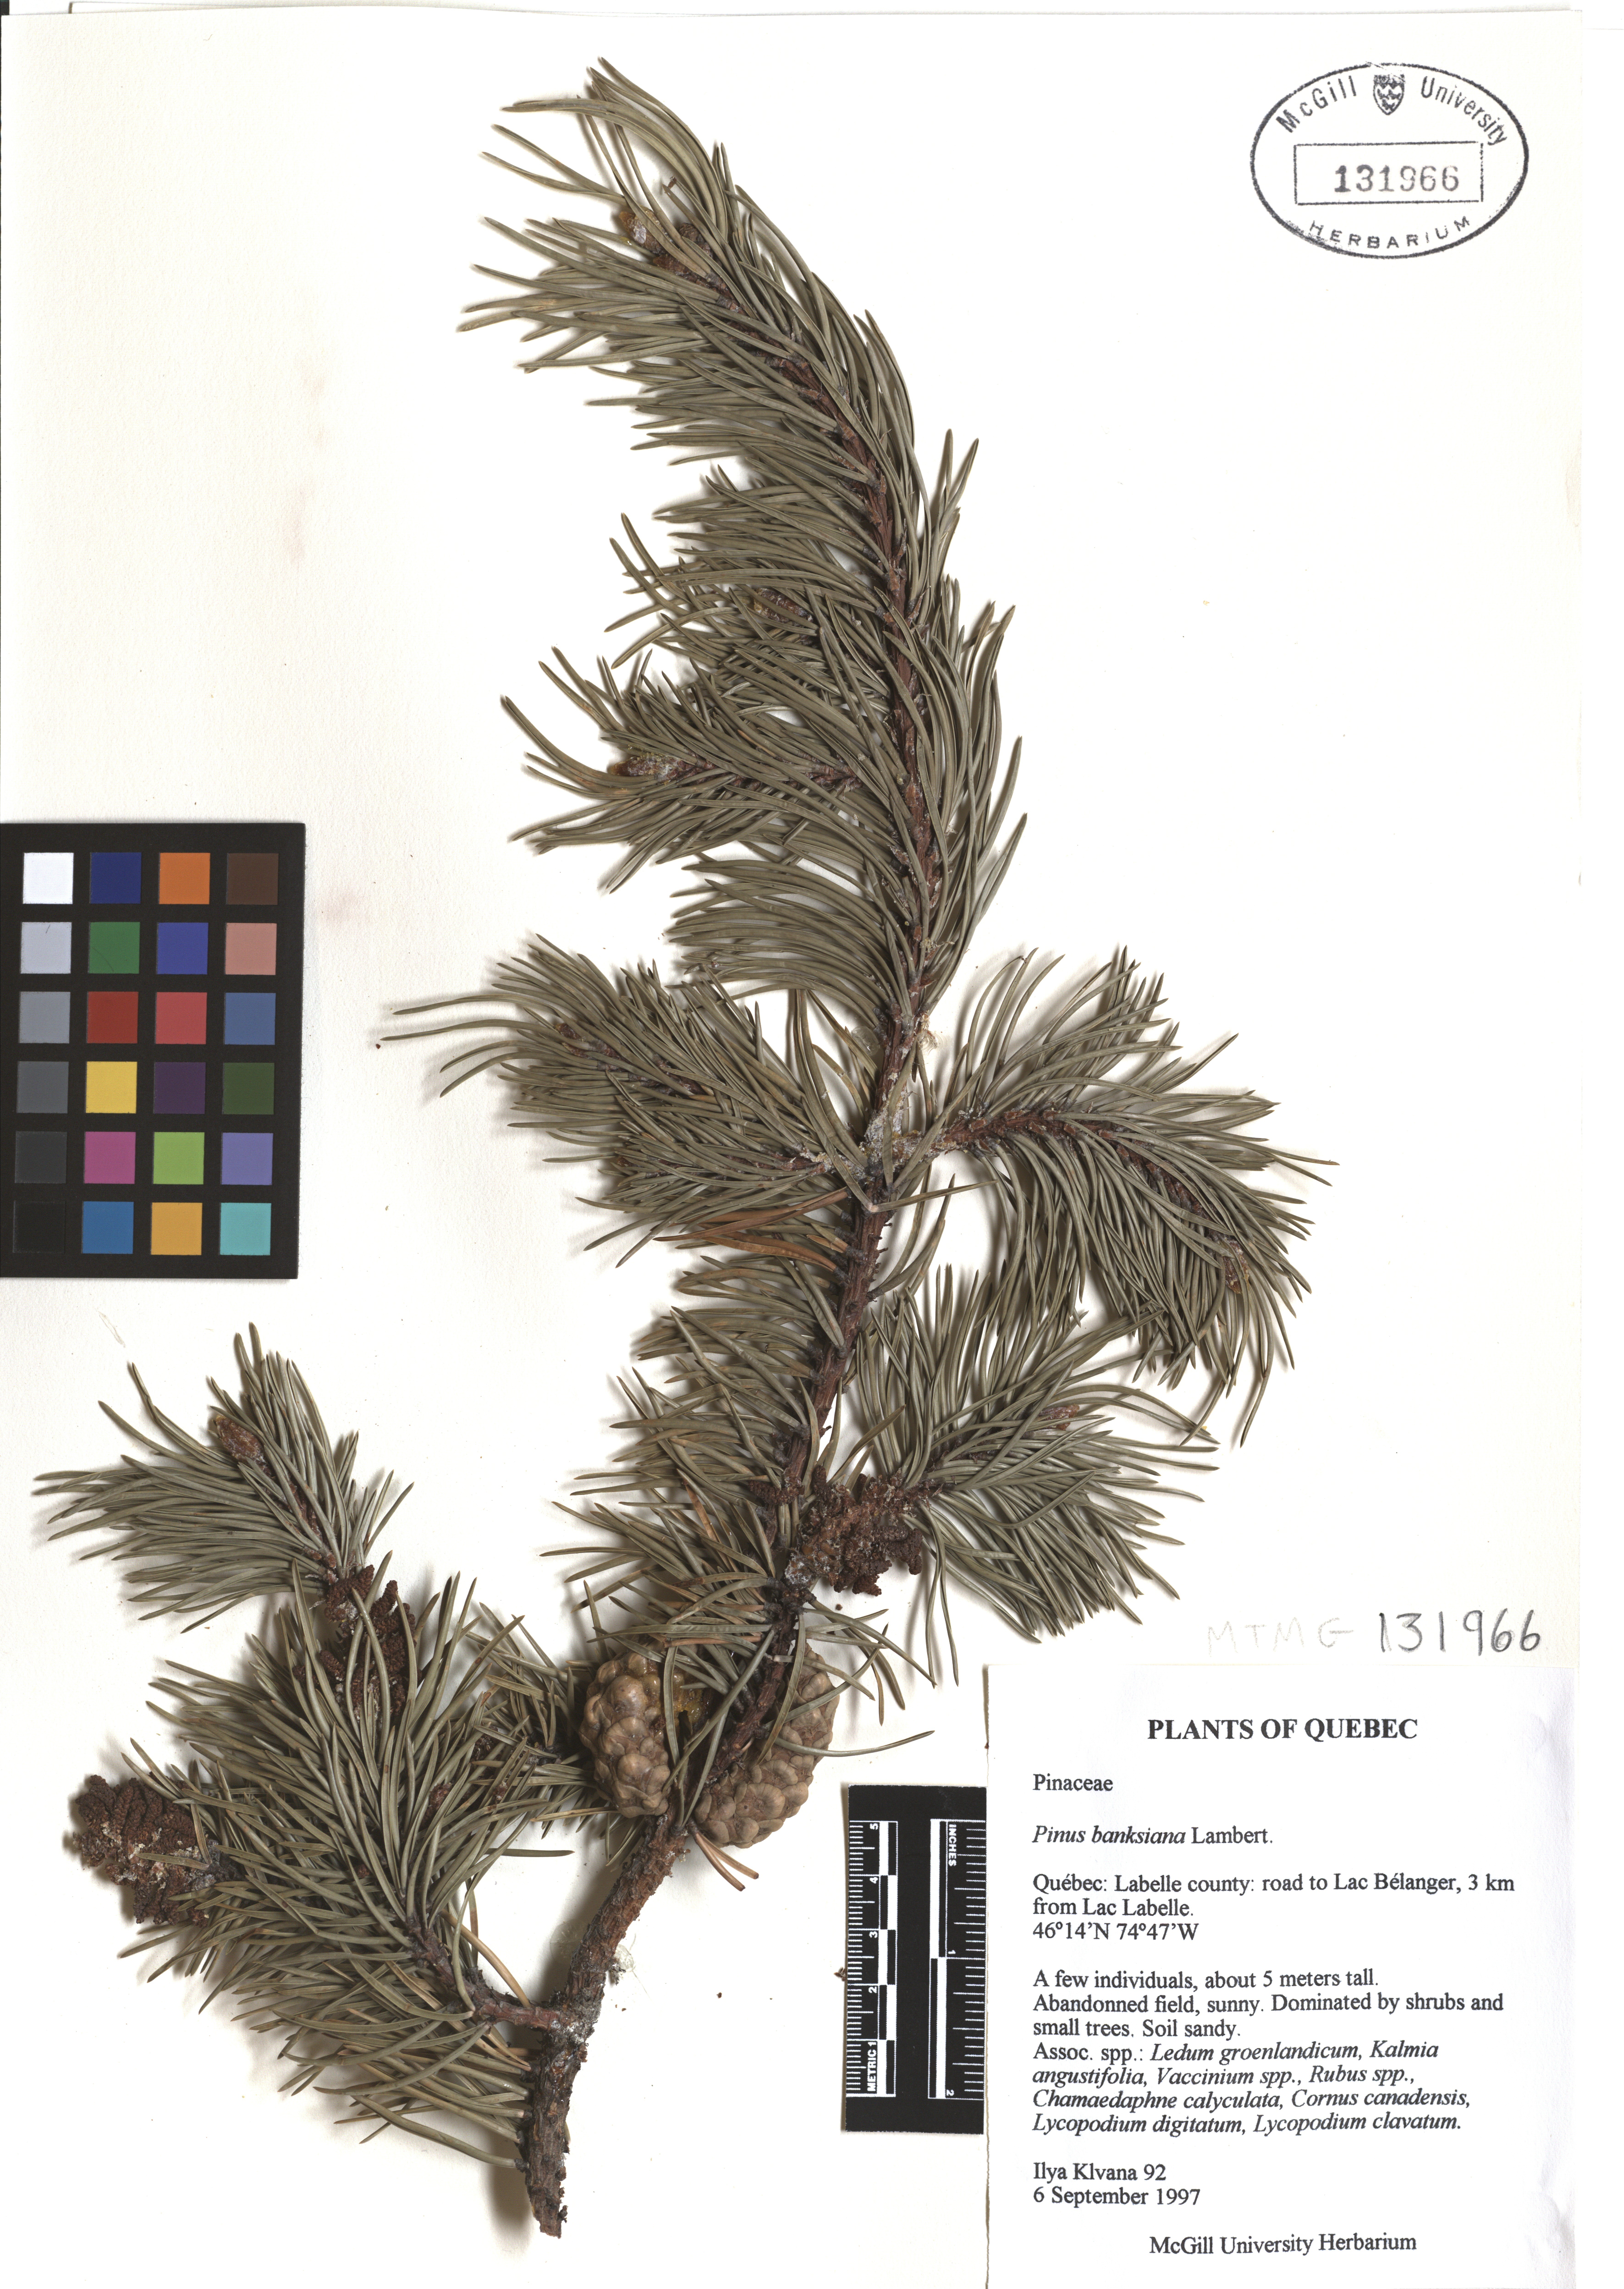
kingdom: Plantae
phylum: Tracheophyta
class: Pinopsida
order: Pinales
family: Pinaceae
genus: Pinus
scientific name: Pinus banksiana
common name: Jack pine
